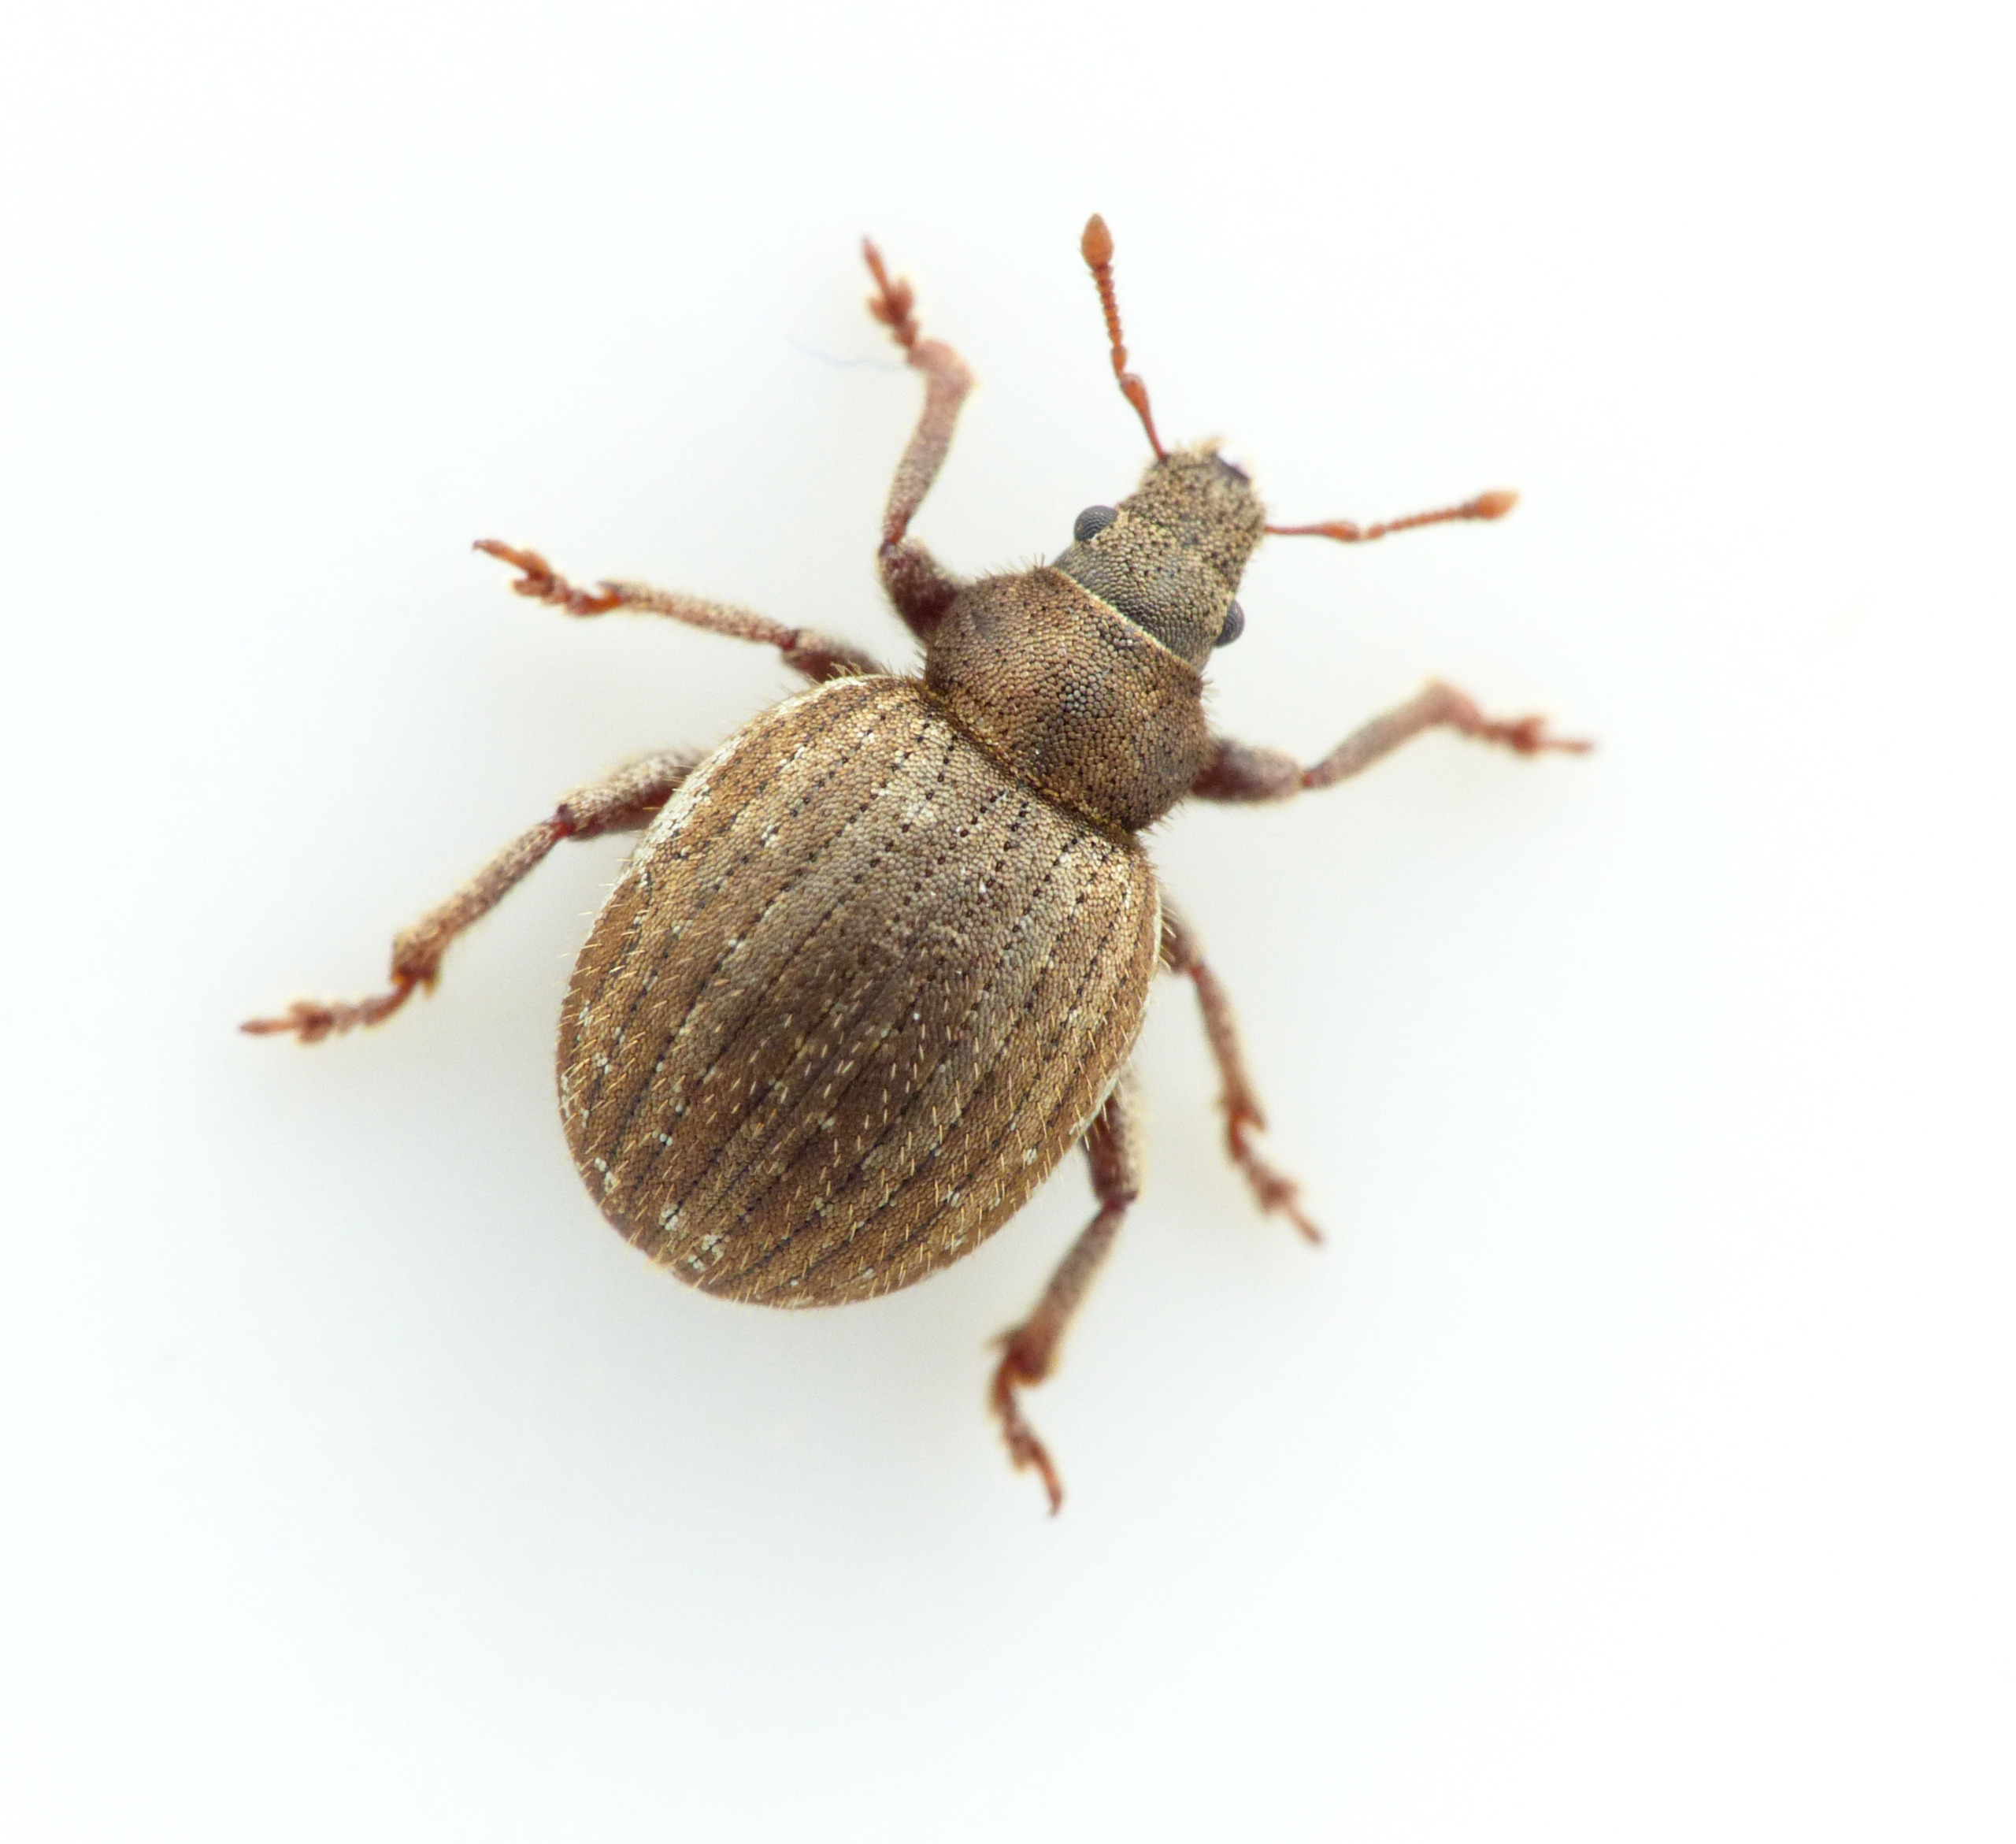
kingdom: Animalia
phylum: Arthropoda
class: Insecta
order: Coleoptera
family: Curculionidae
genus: Philopedon
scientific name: Philopedon plagiatum
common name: Sandgråsnude
